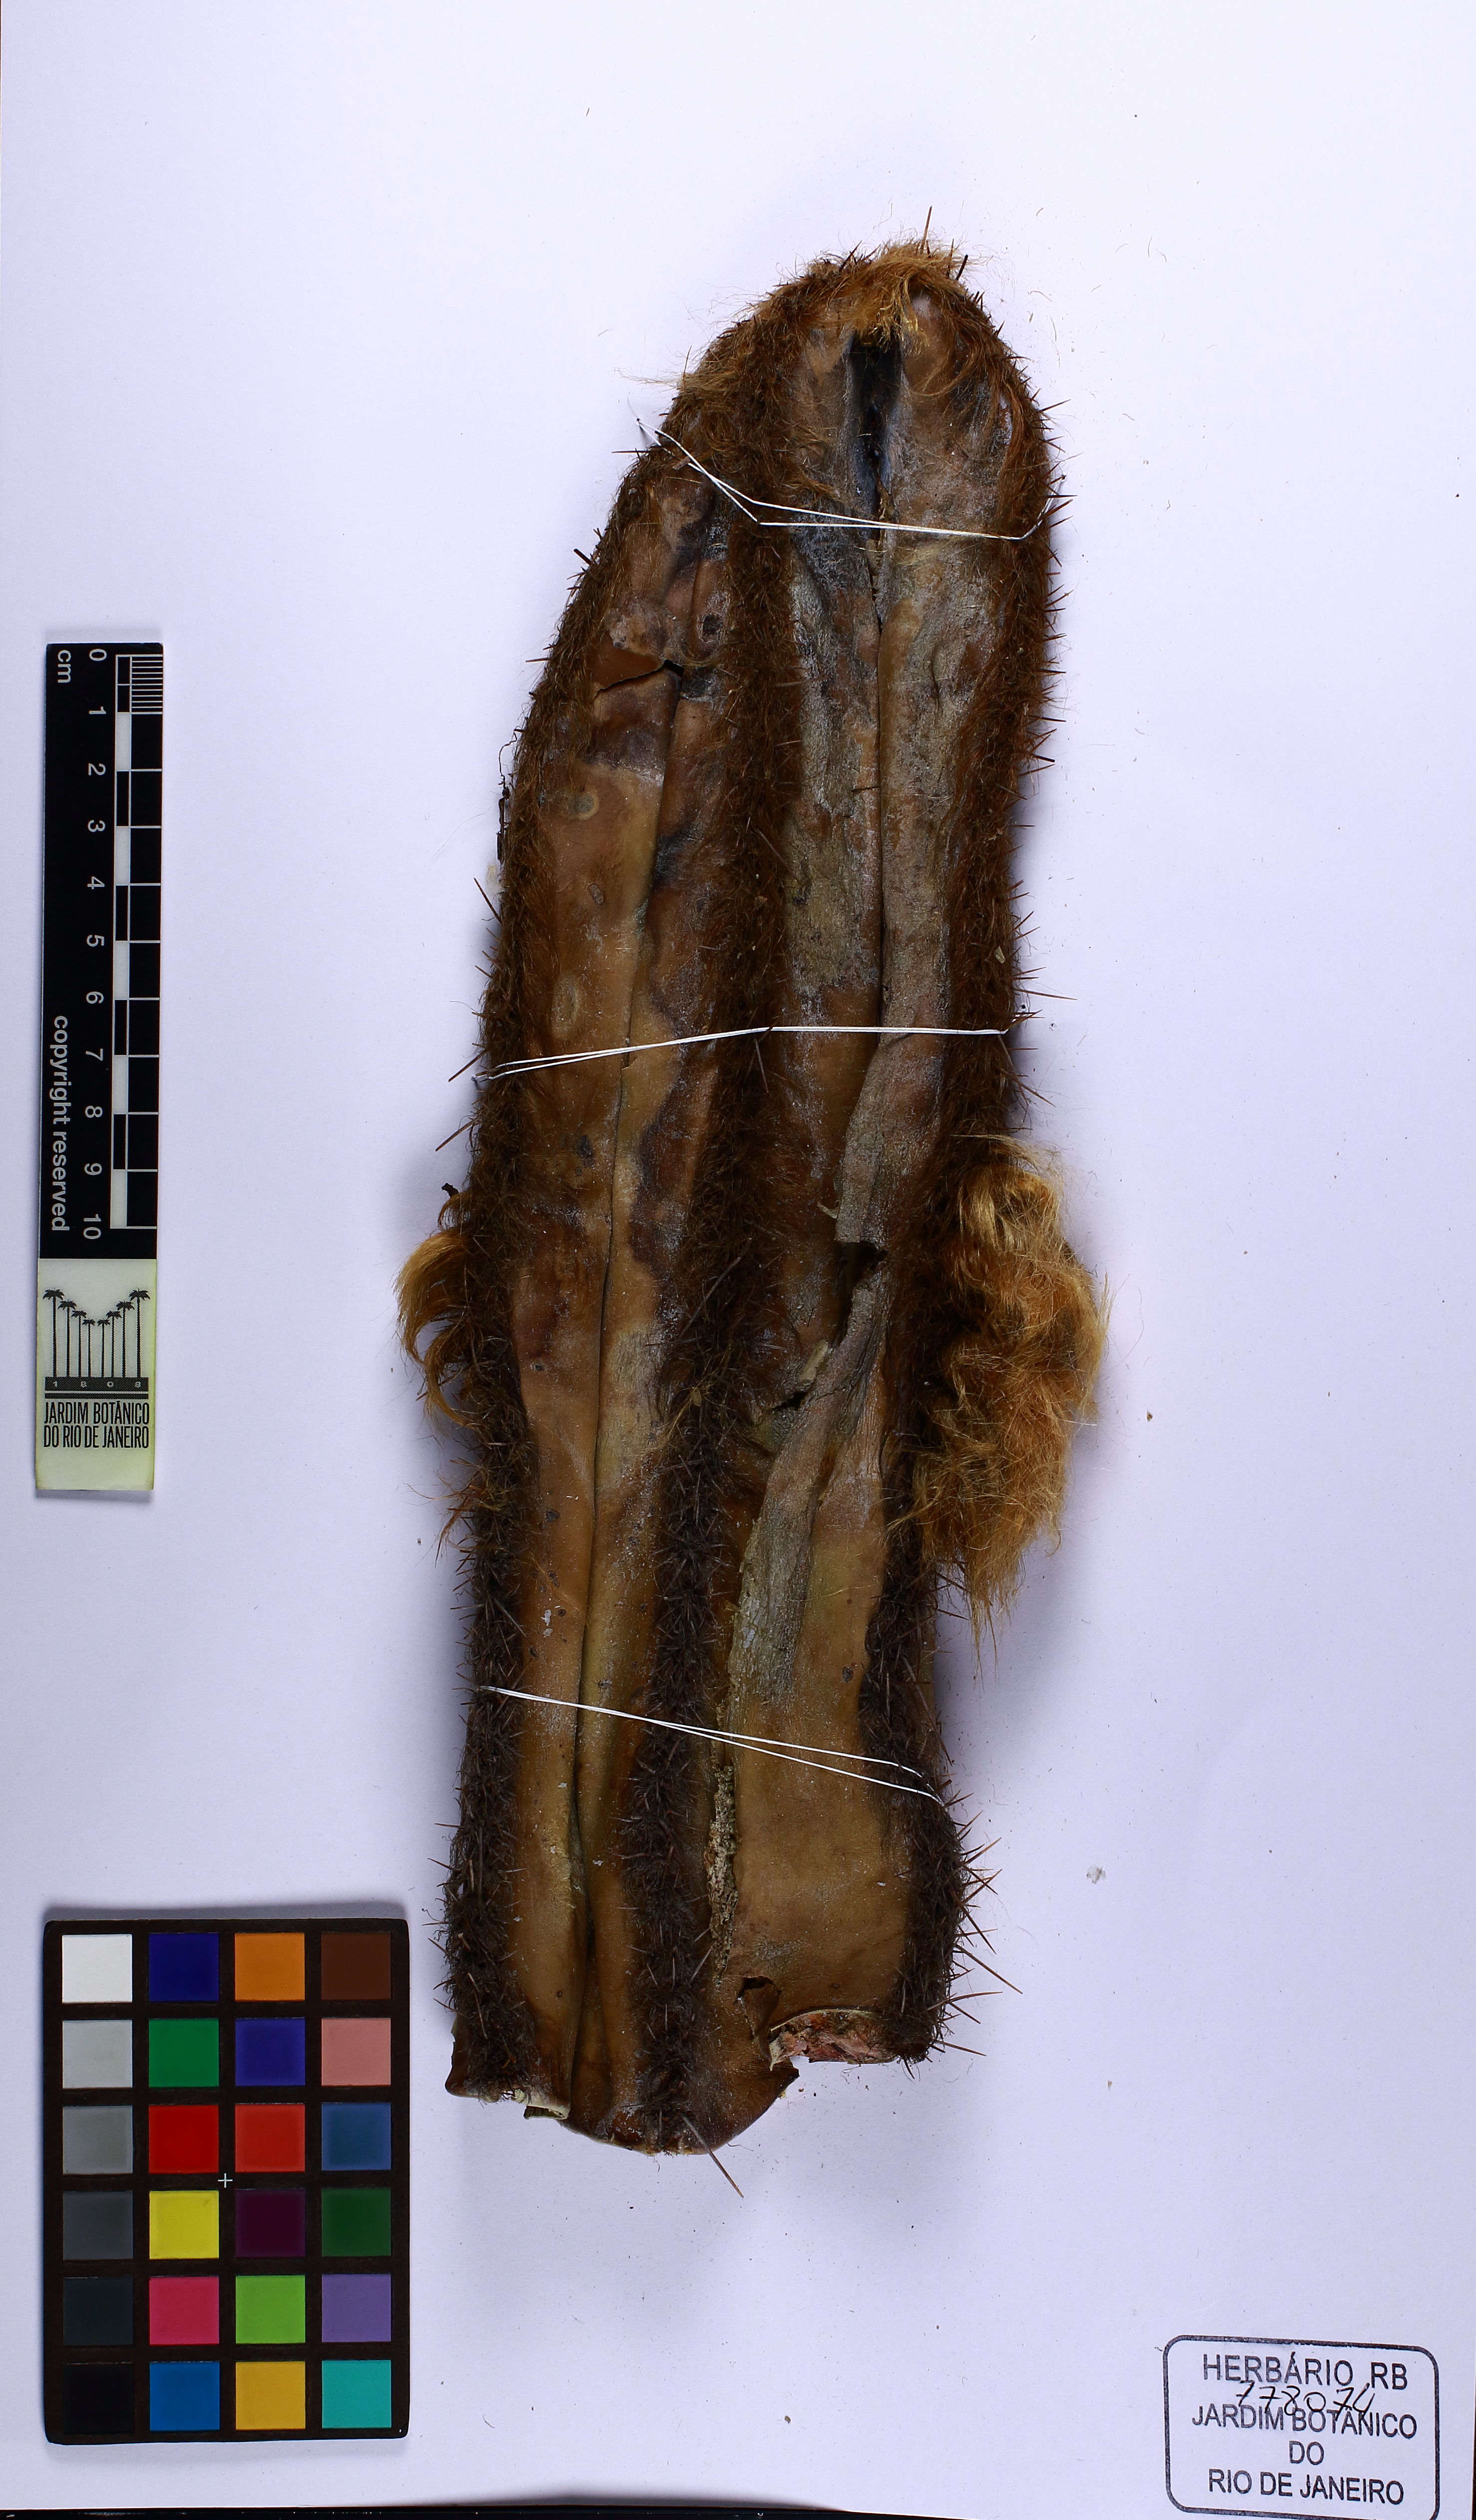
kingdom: Plantae
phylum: Tracheophyta
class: Magnoliopsida
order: Caryophyllales
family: Cactaceae
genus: Pilosocereus
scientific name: Pilosocereus fulvilanatus
